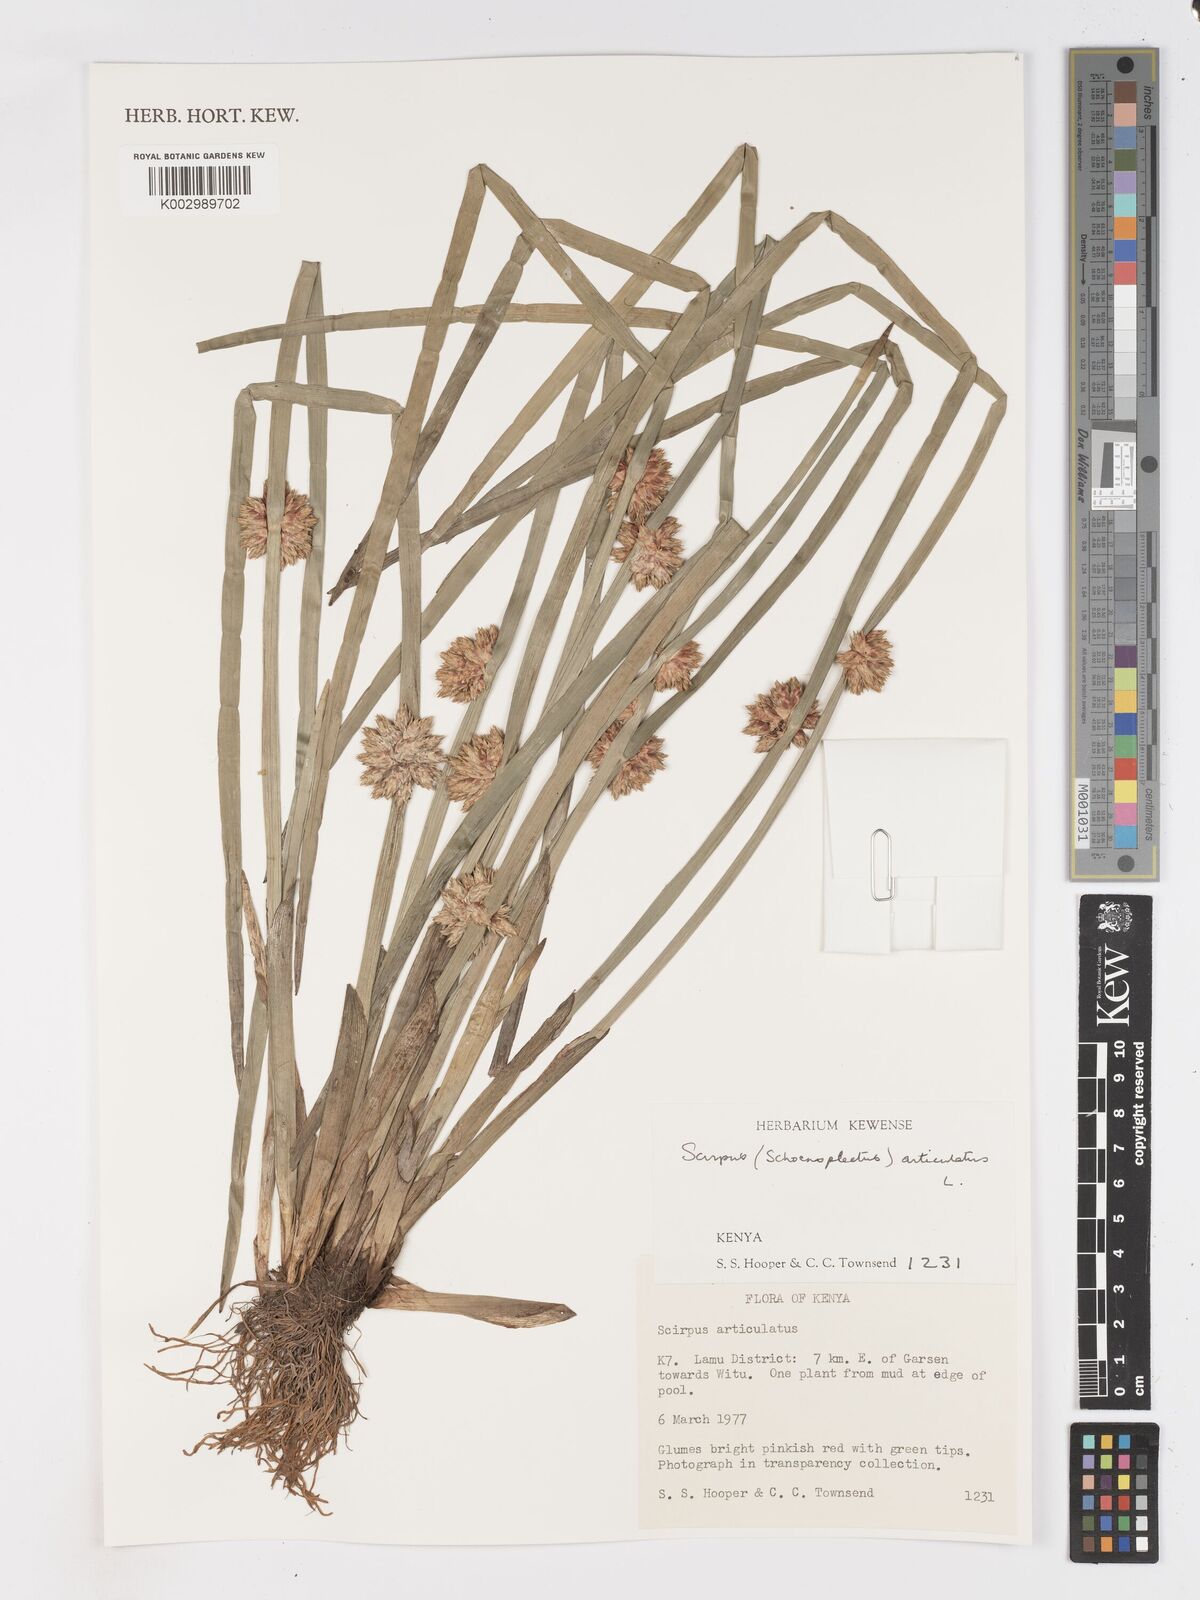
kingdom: Plantae
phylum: Tracheophyta
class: Liliopsida
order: Poales
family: Cyperaceae
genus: Schoenoplectiella
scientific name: Schoenoplectiella articulata
